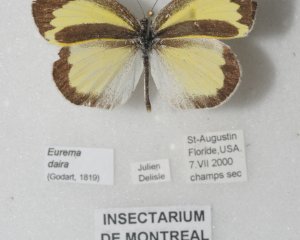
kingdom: Animalia
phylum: Arthropoda
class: Insecta
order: Lepidoptera
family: Pieridae
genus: Eurema
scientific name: Eurema daira
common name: Barred Yellow
